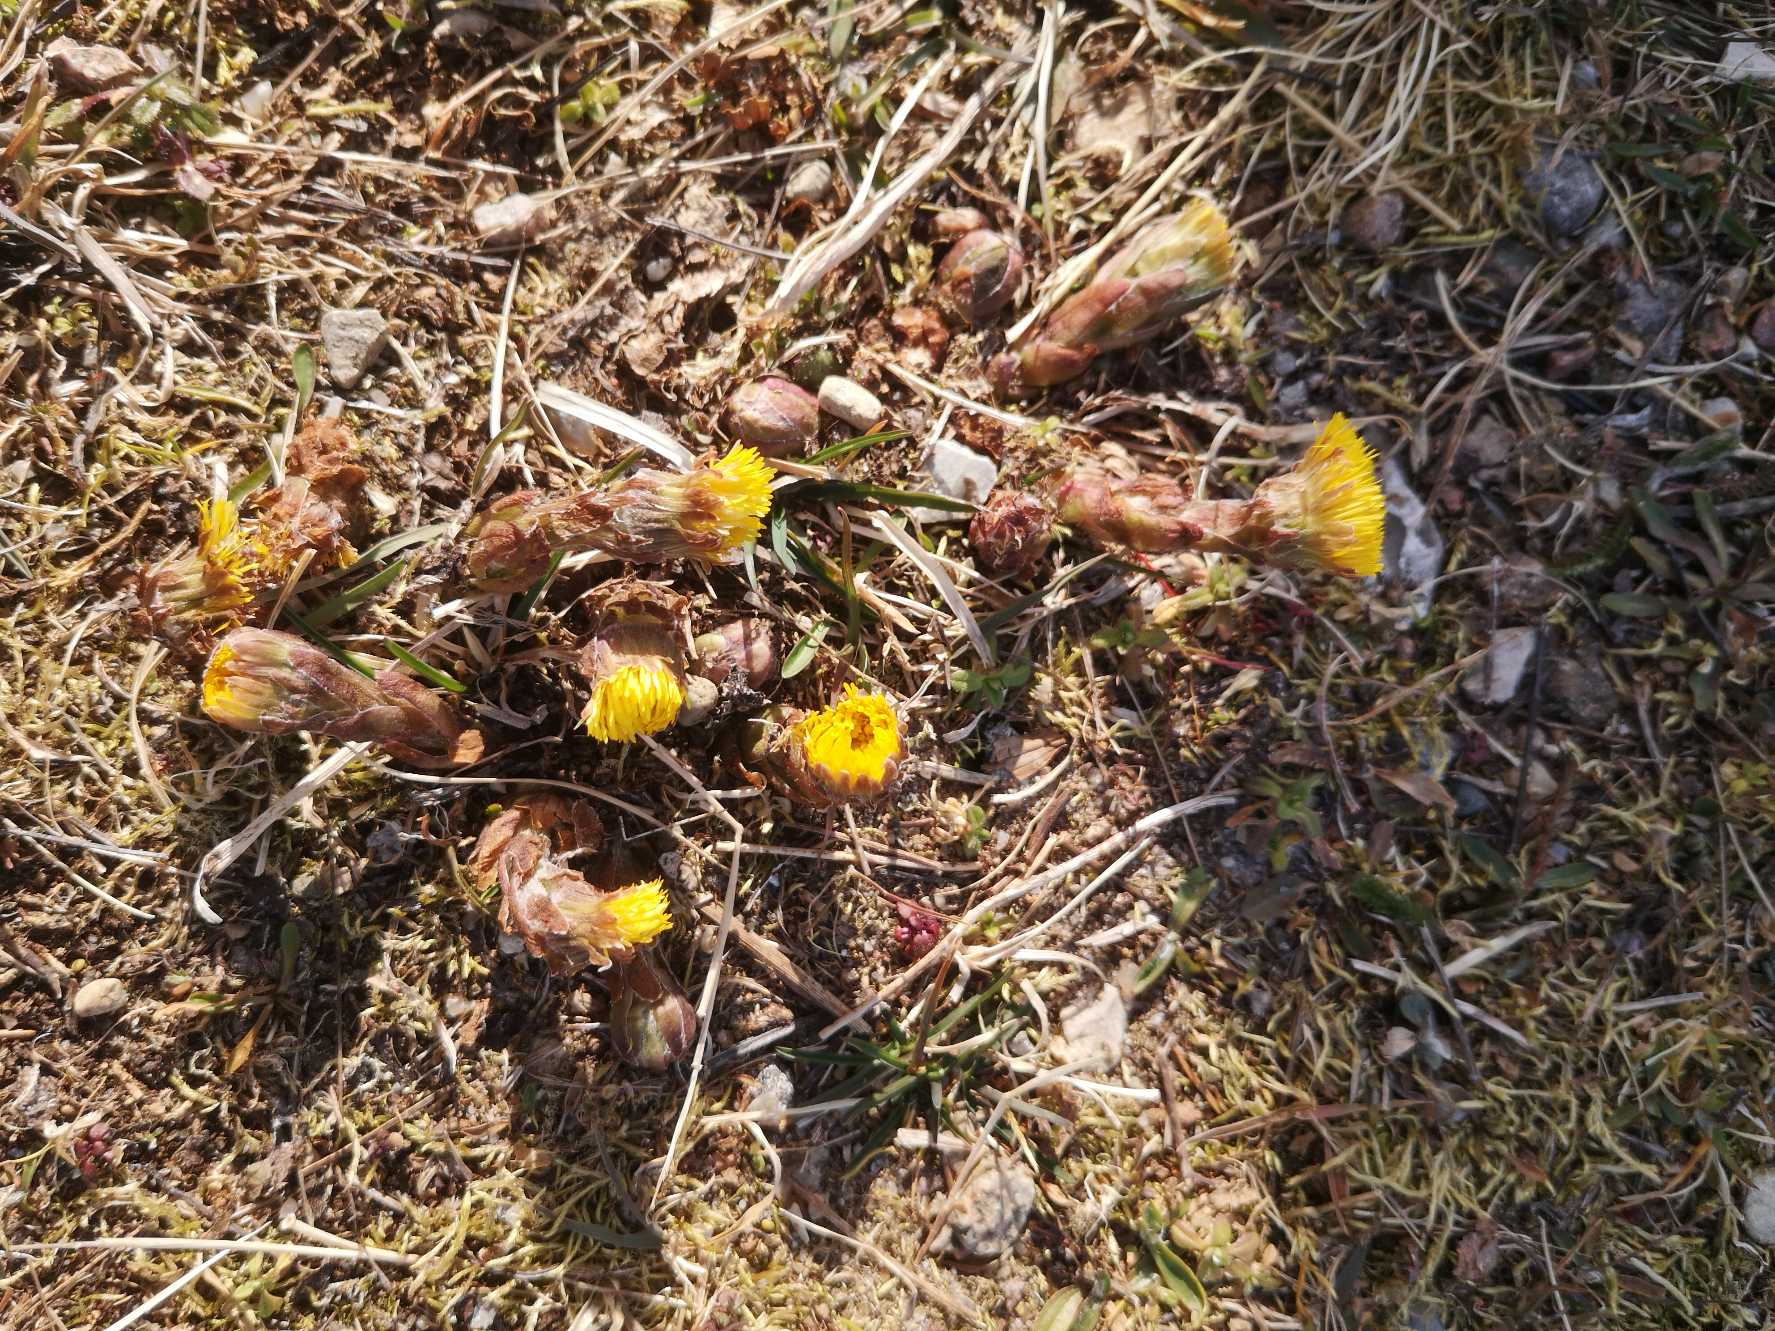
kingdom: Plantae
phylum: Tracheophyta
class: Magnoliopsida
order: Asterales
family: Asteraceae
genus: Tussilago
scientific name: Tussilago farfara
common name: Følfod
